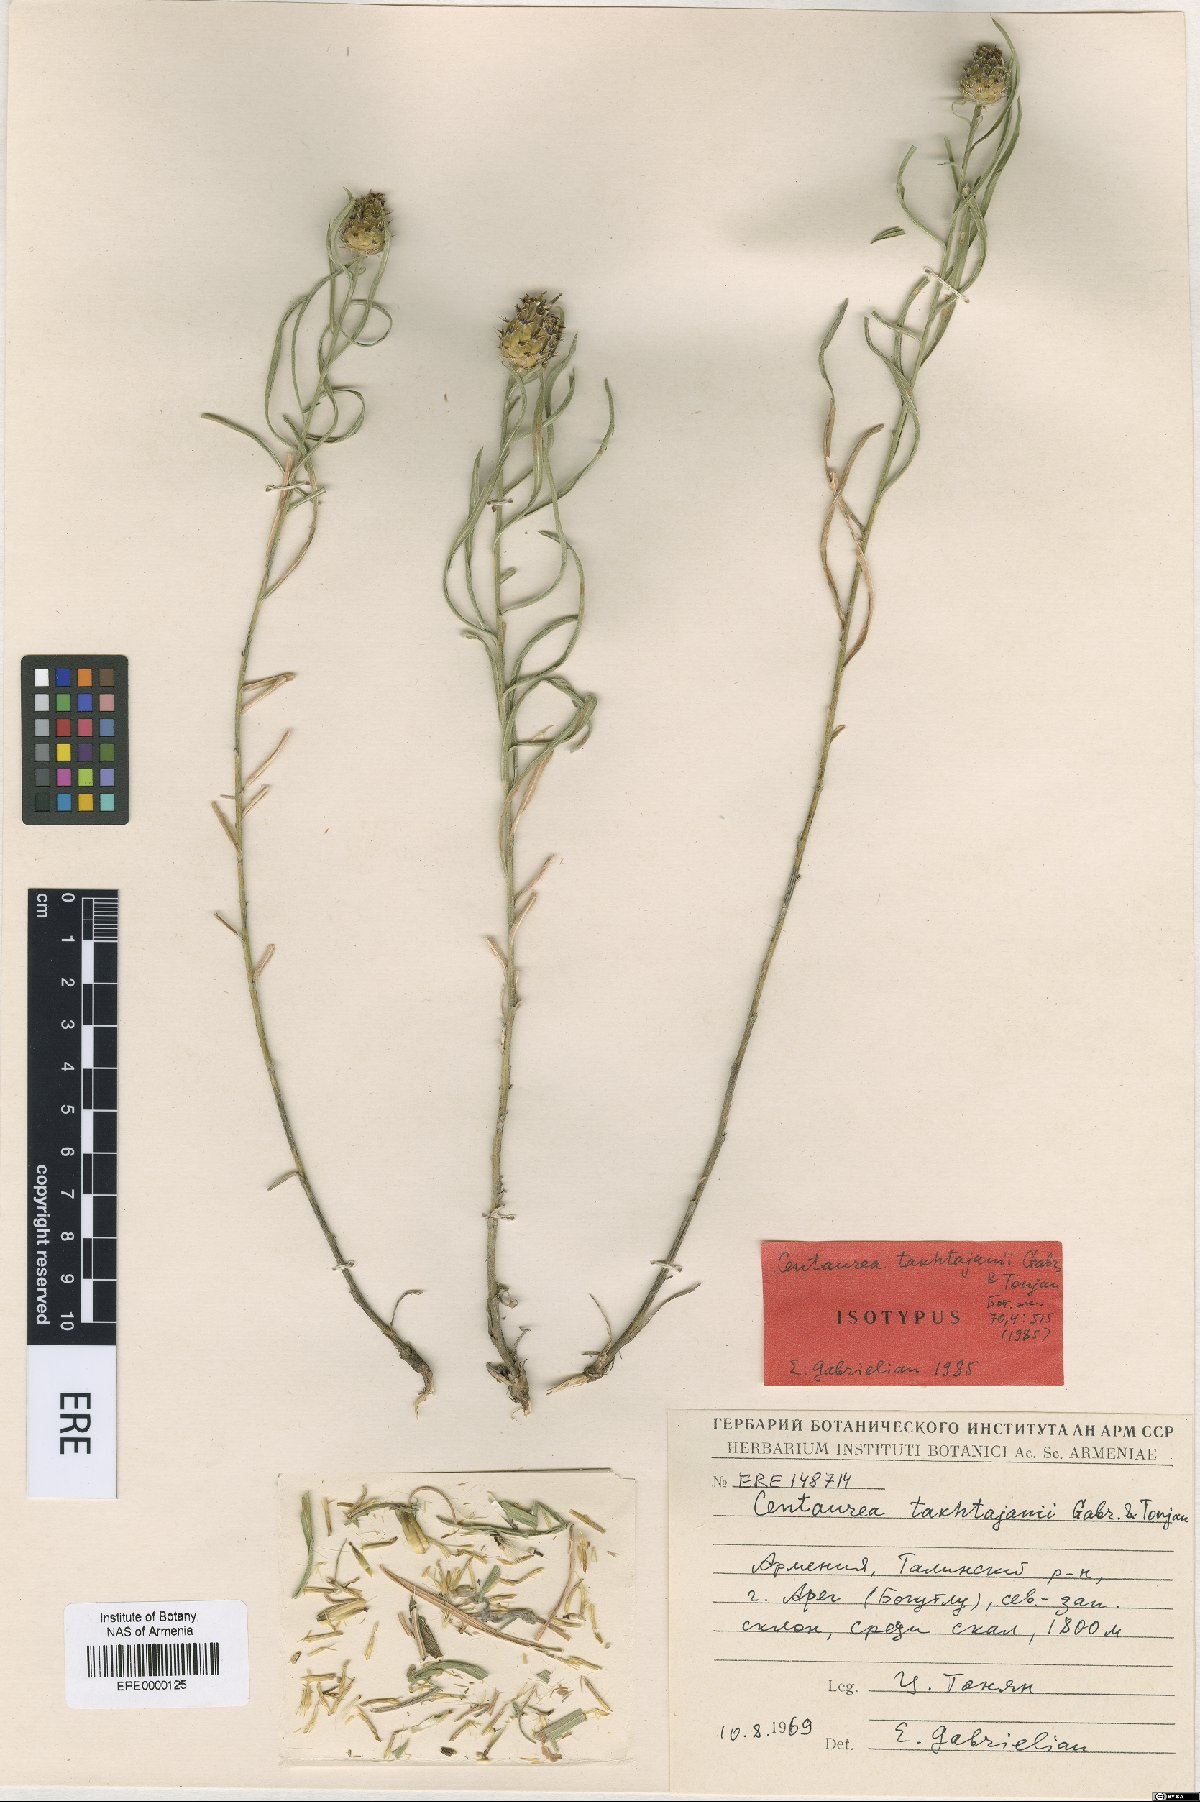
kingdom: Plantae
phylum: Tracheophyta
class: Magnoliopsida
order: Asterales
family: Asteraceae
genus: Centaurea
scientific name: Centaurea takhtajanii
